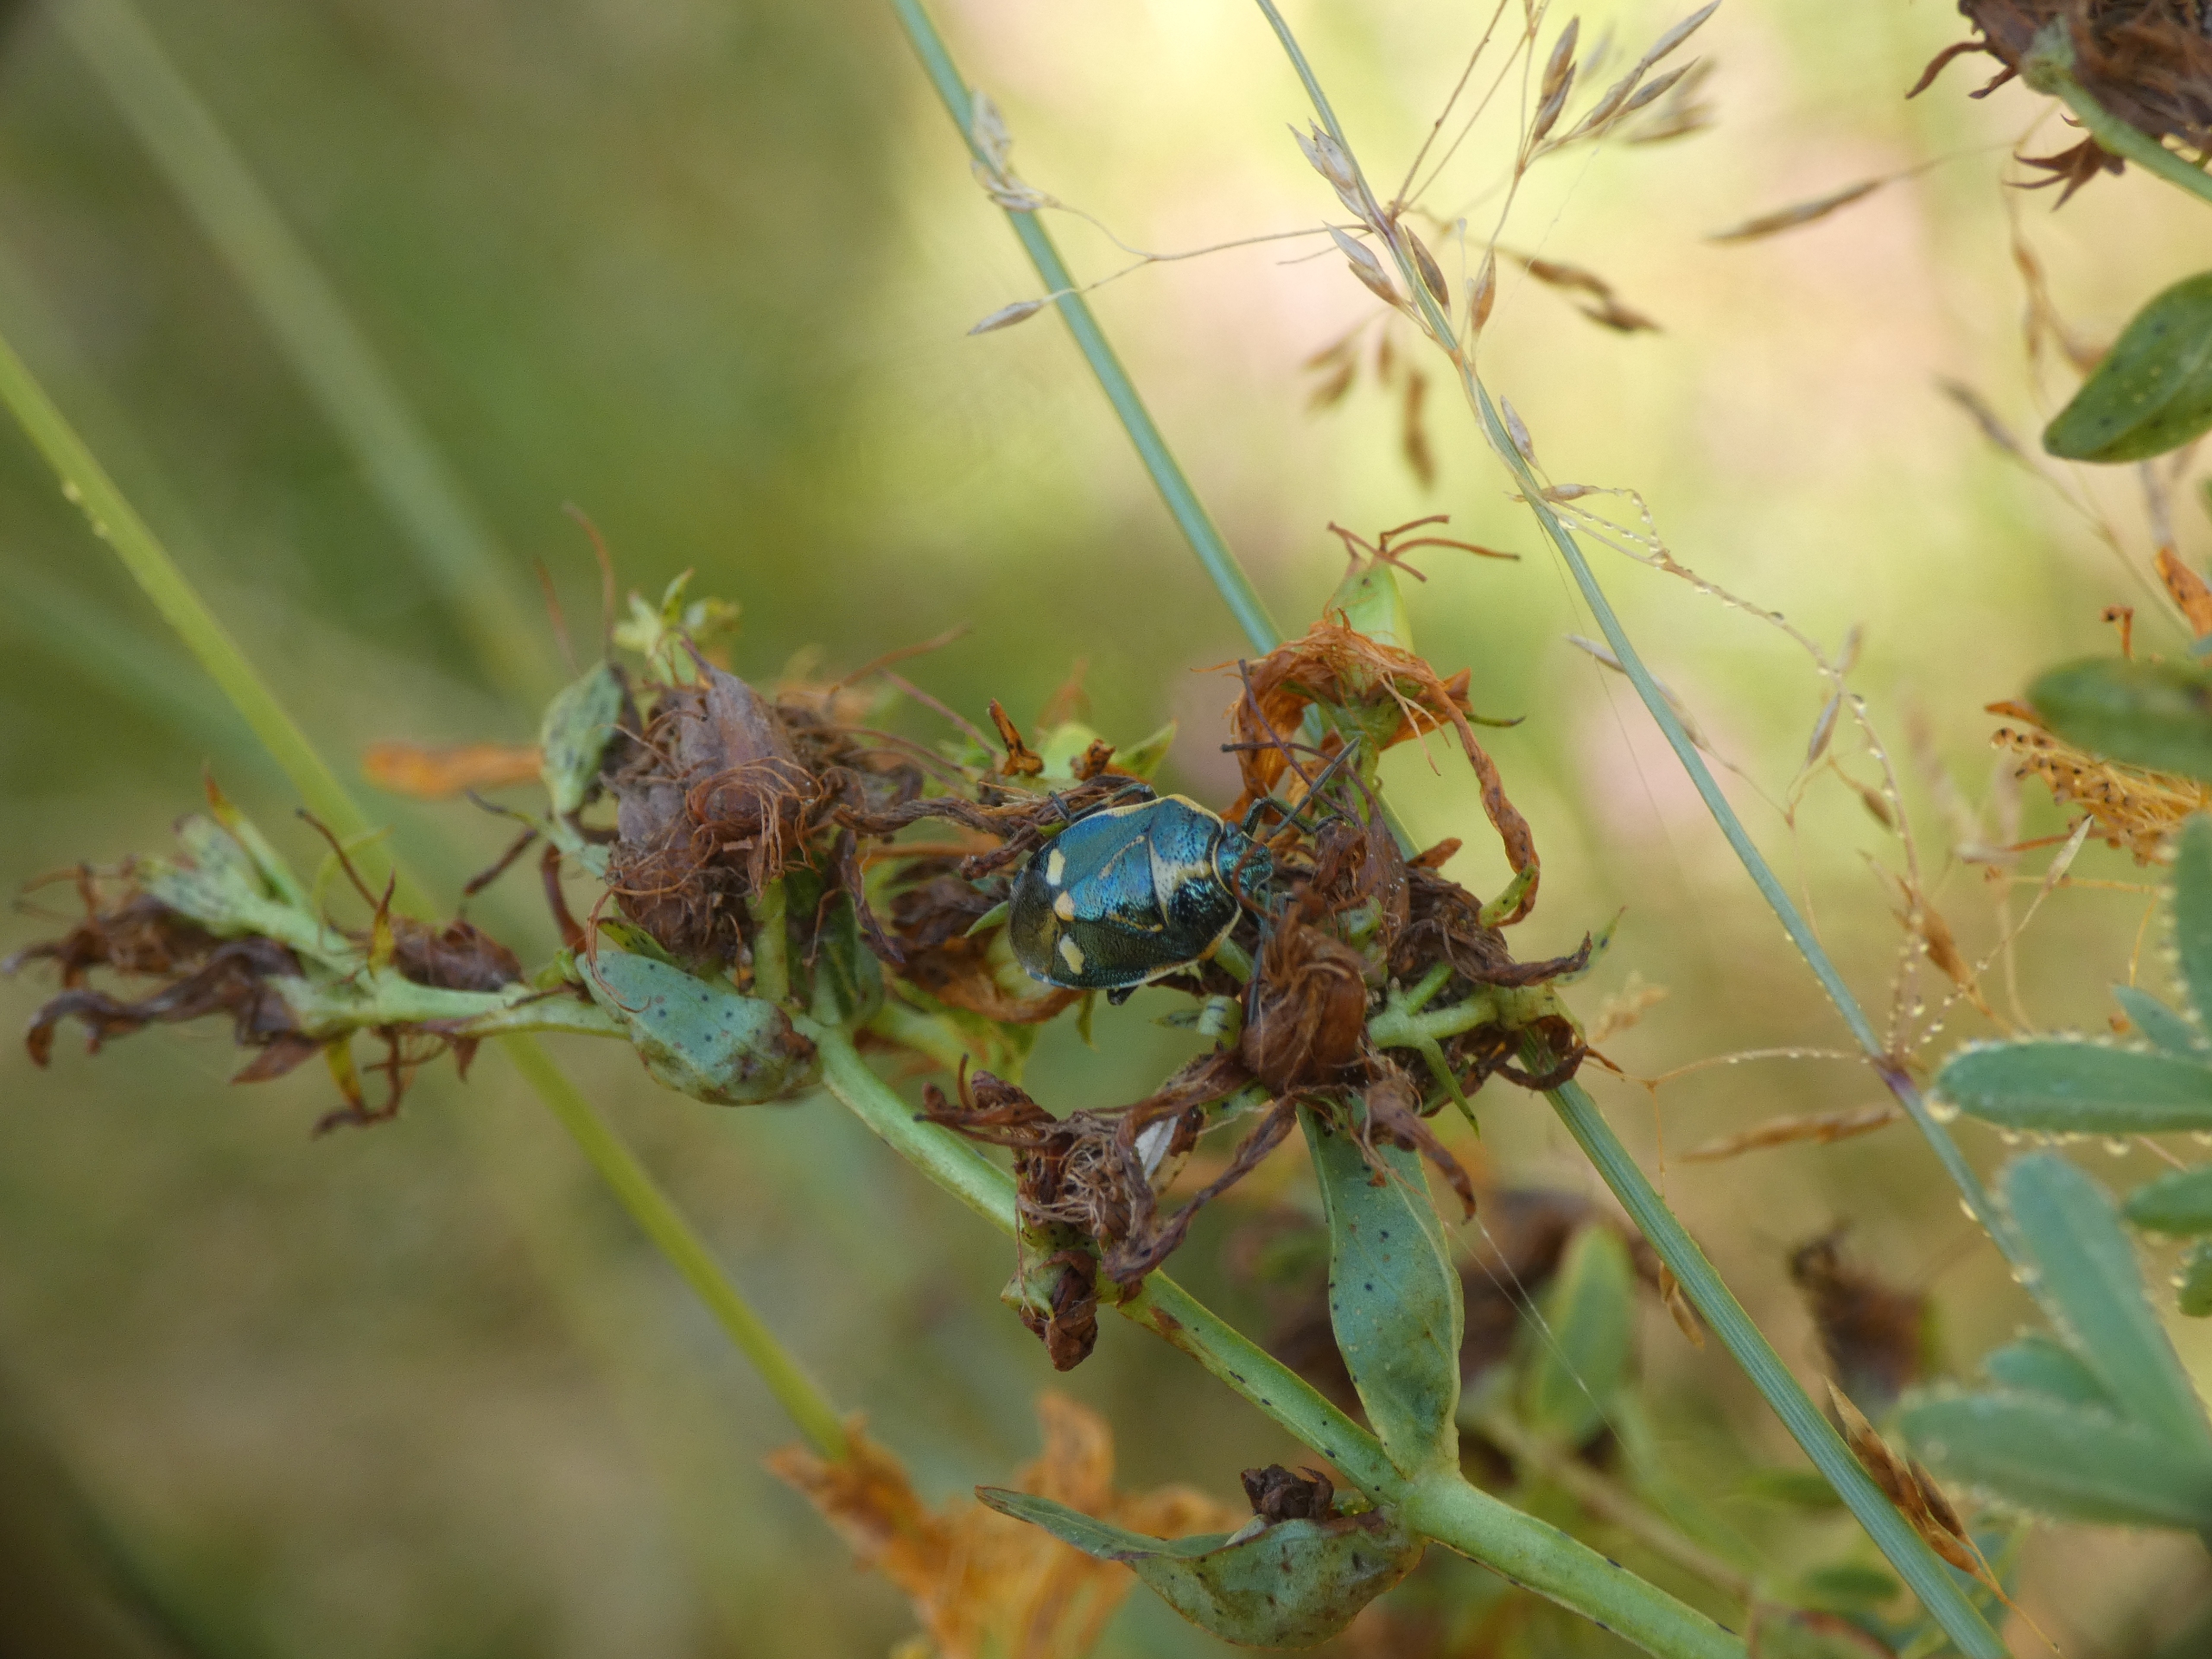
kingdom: Animalia
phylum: Arthropoda
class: Insecta
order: Hemiptera
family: Pentatomidae
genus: Eurydema
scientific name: Eurydema oleracea
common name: Almindelig kåltæge
